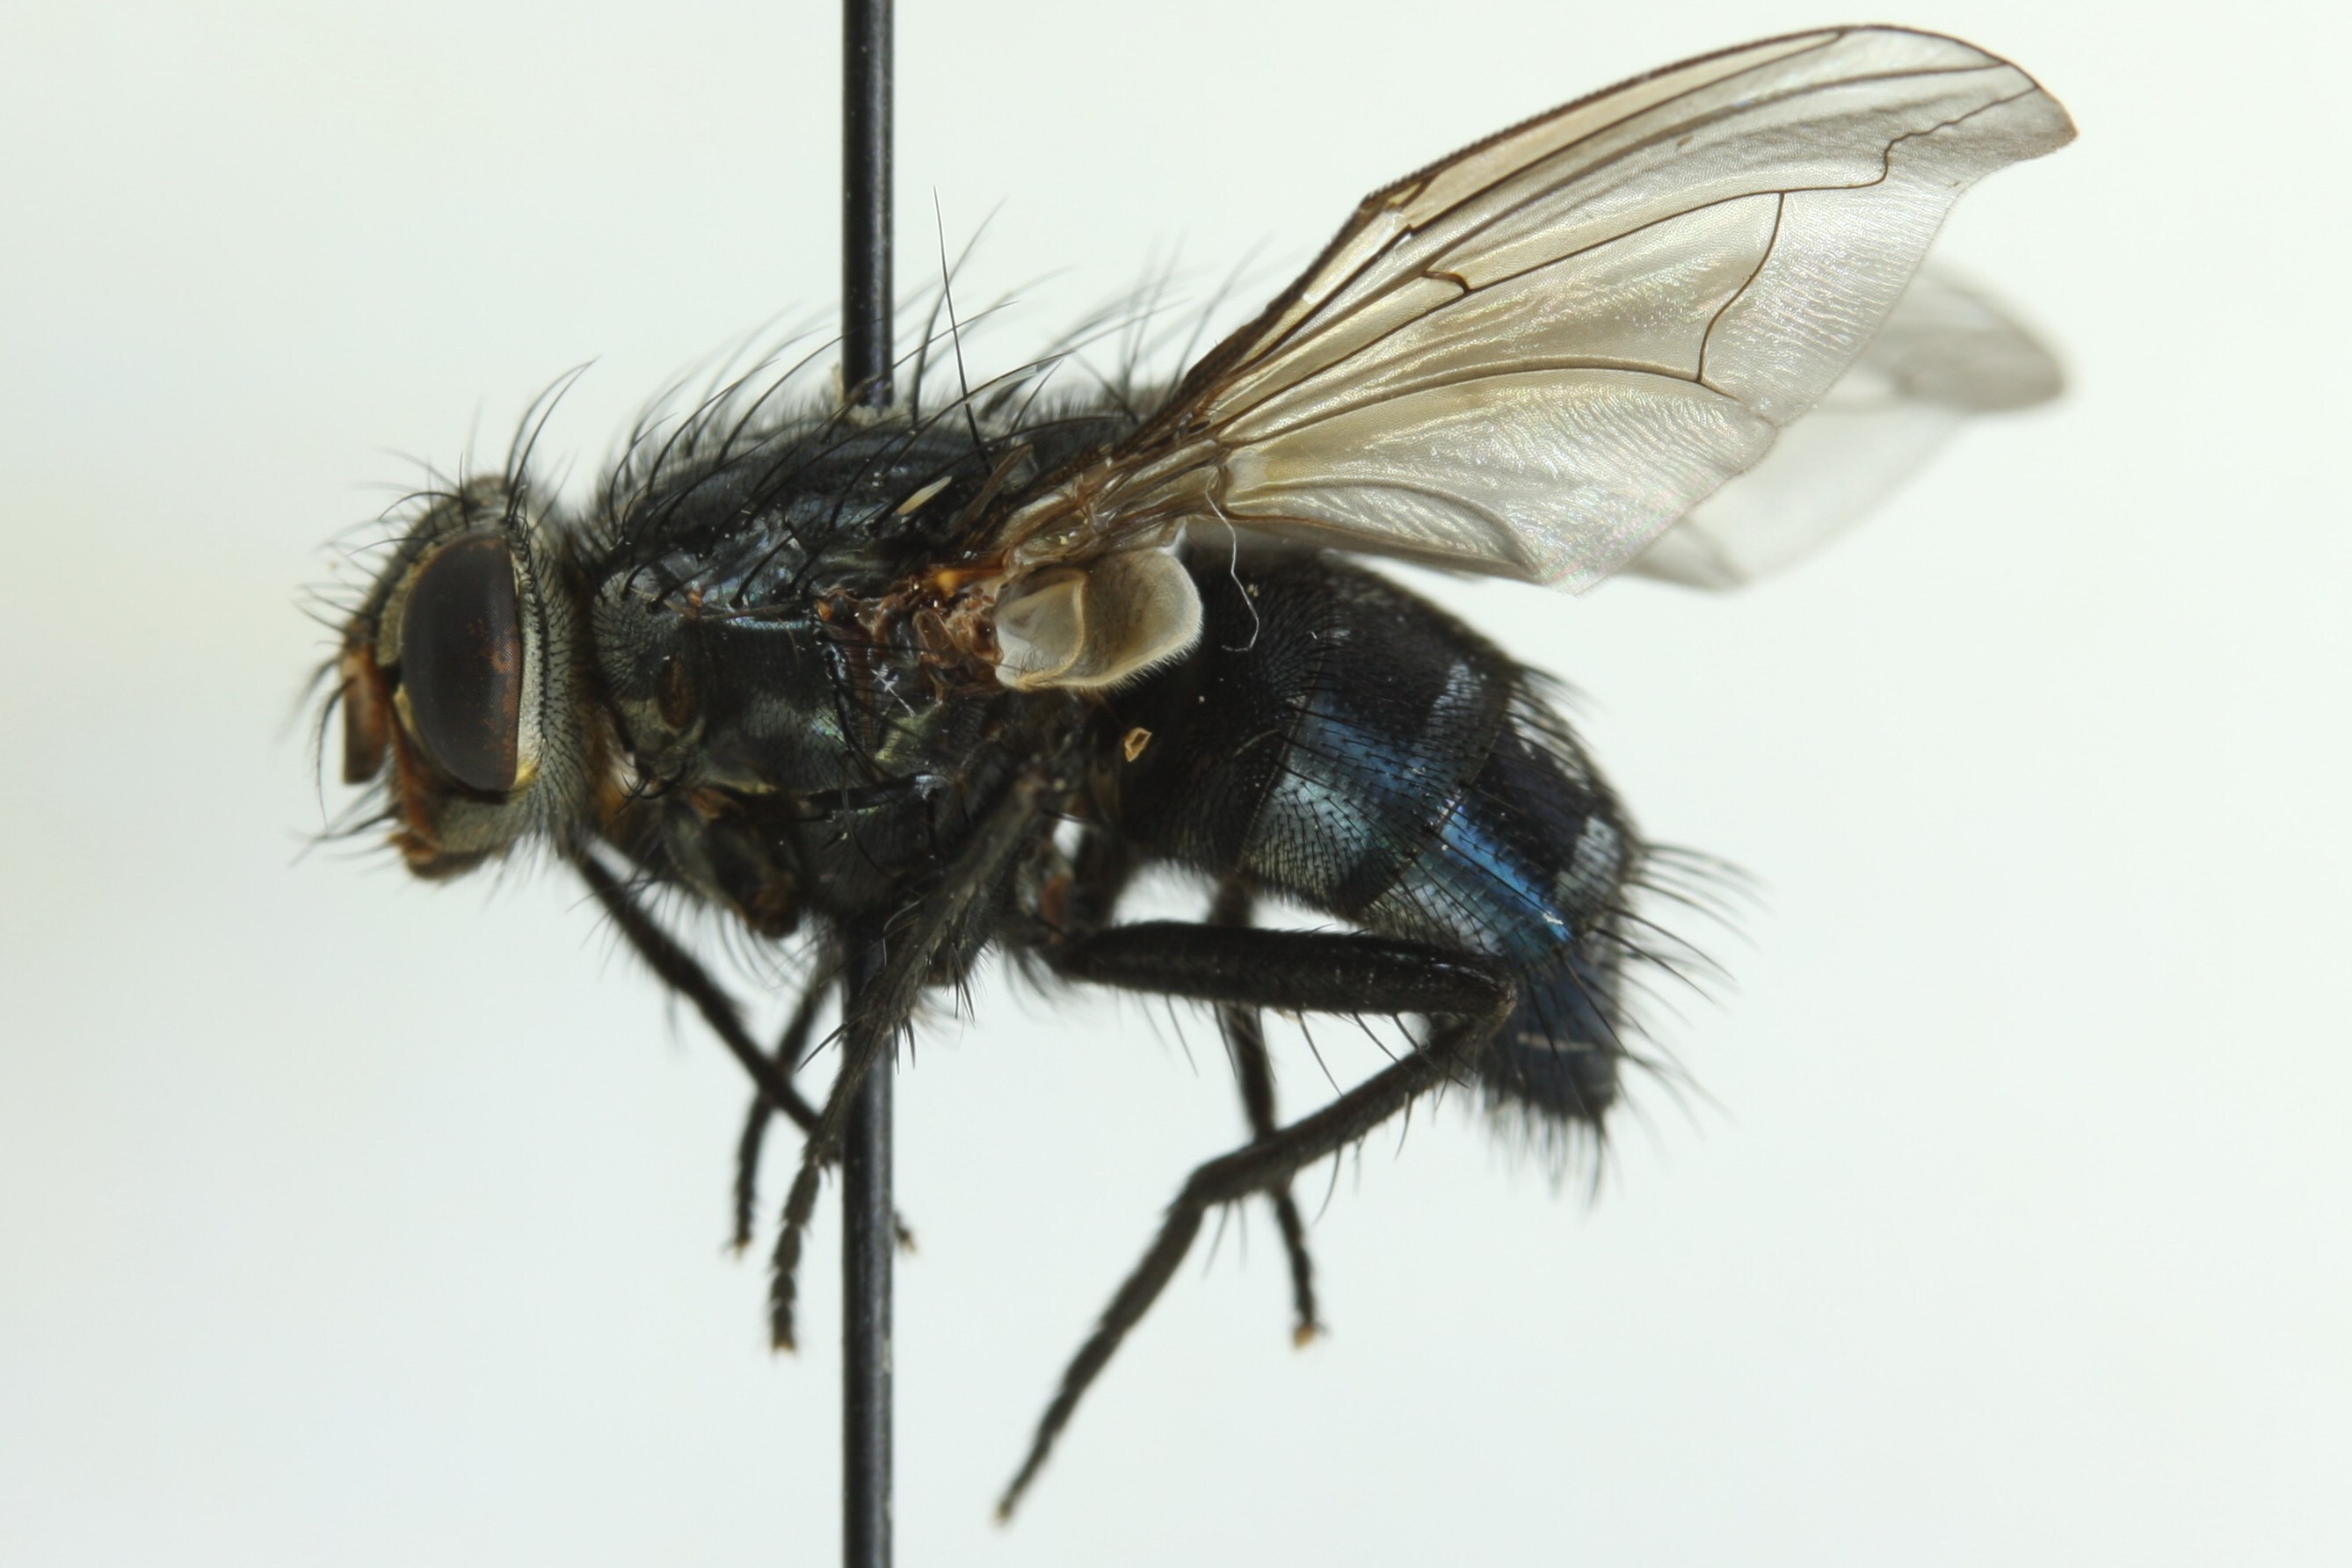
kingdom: Animalia
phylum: Arthropoda
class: Insecta
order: Diptera
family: Calliphoridae
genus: Calliphora
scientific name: Calliphora loewi
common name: Long-horned bluebottle
